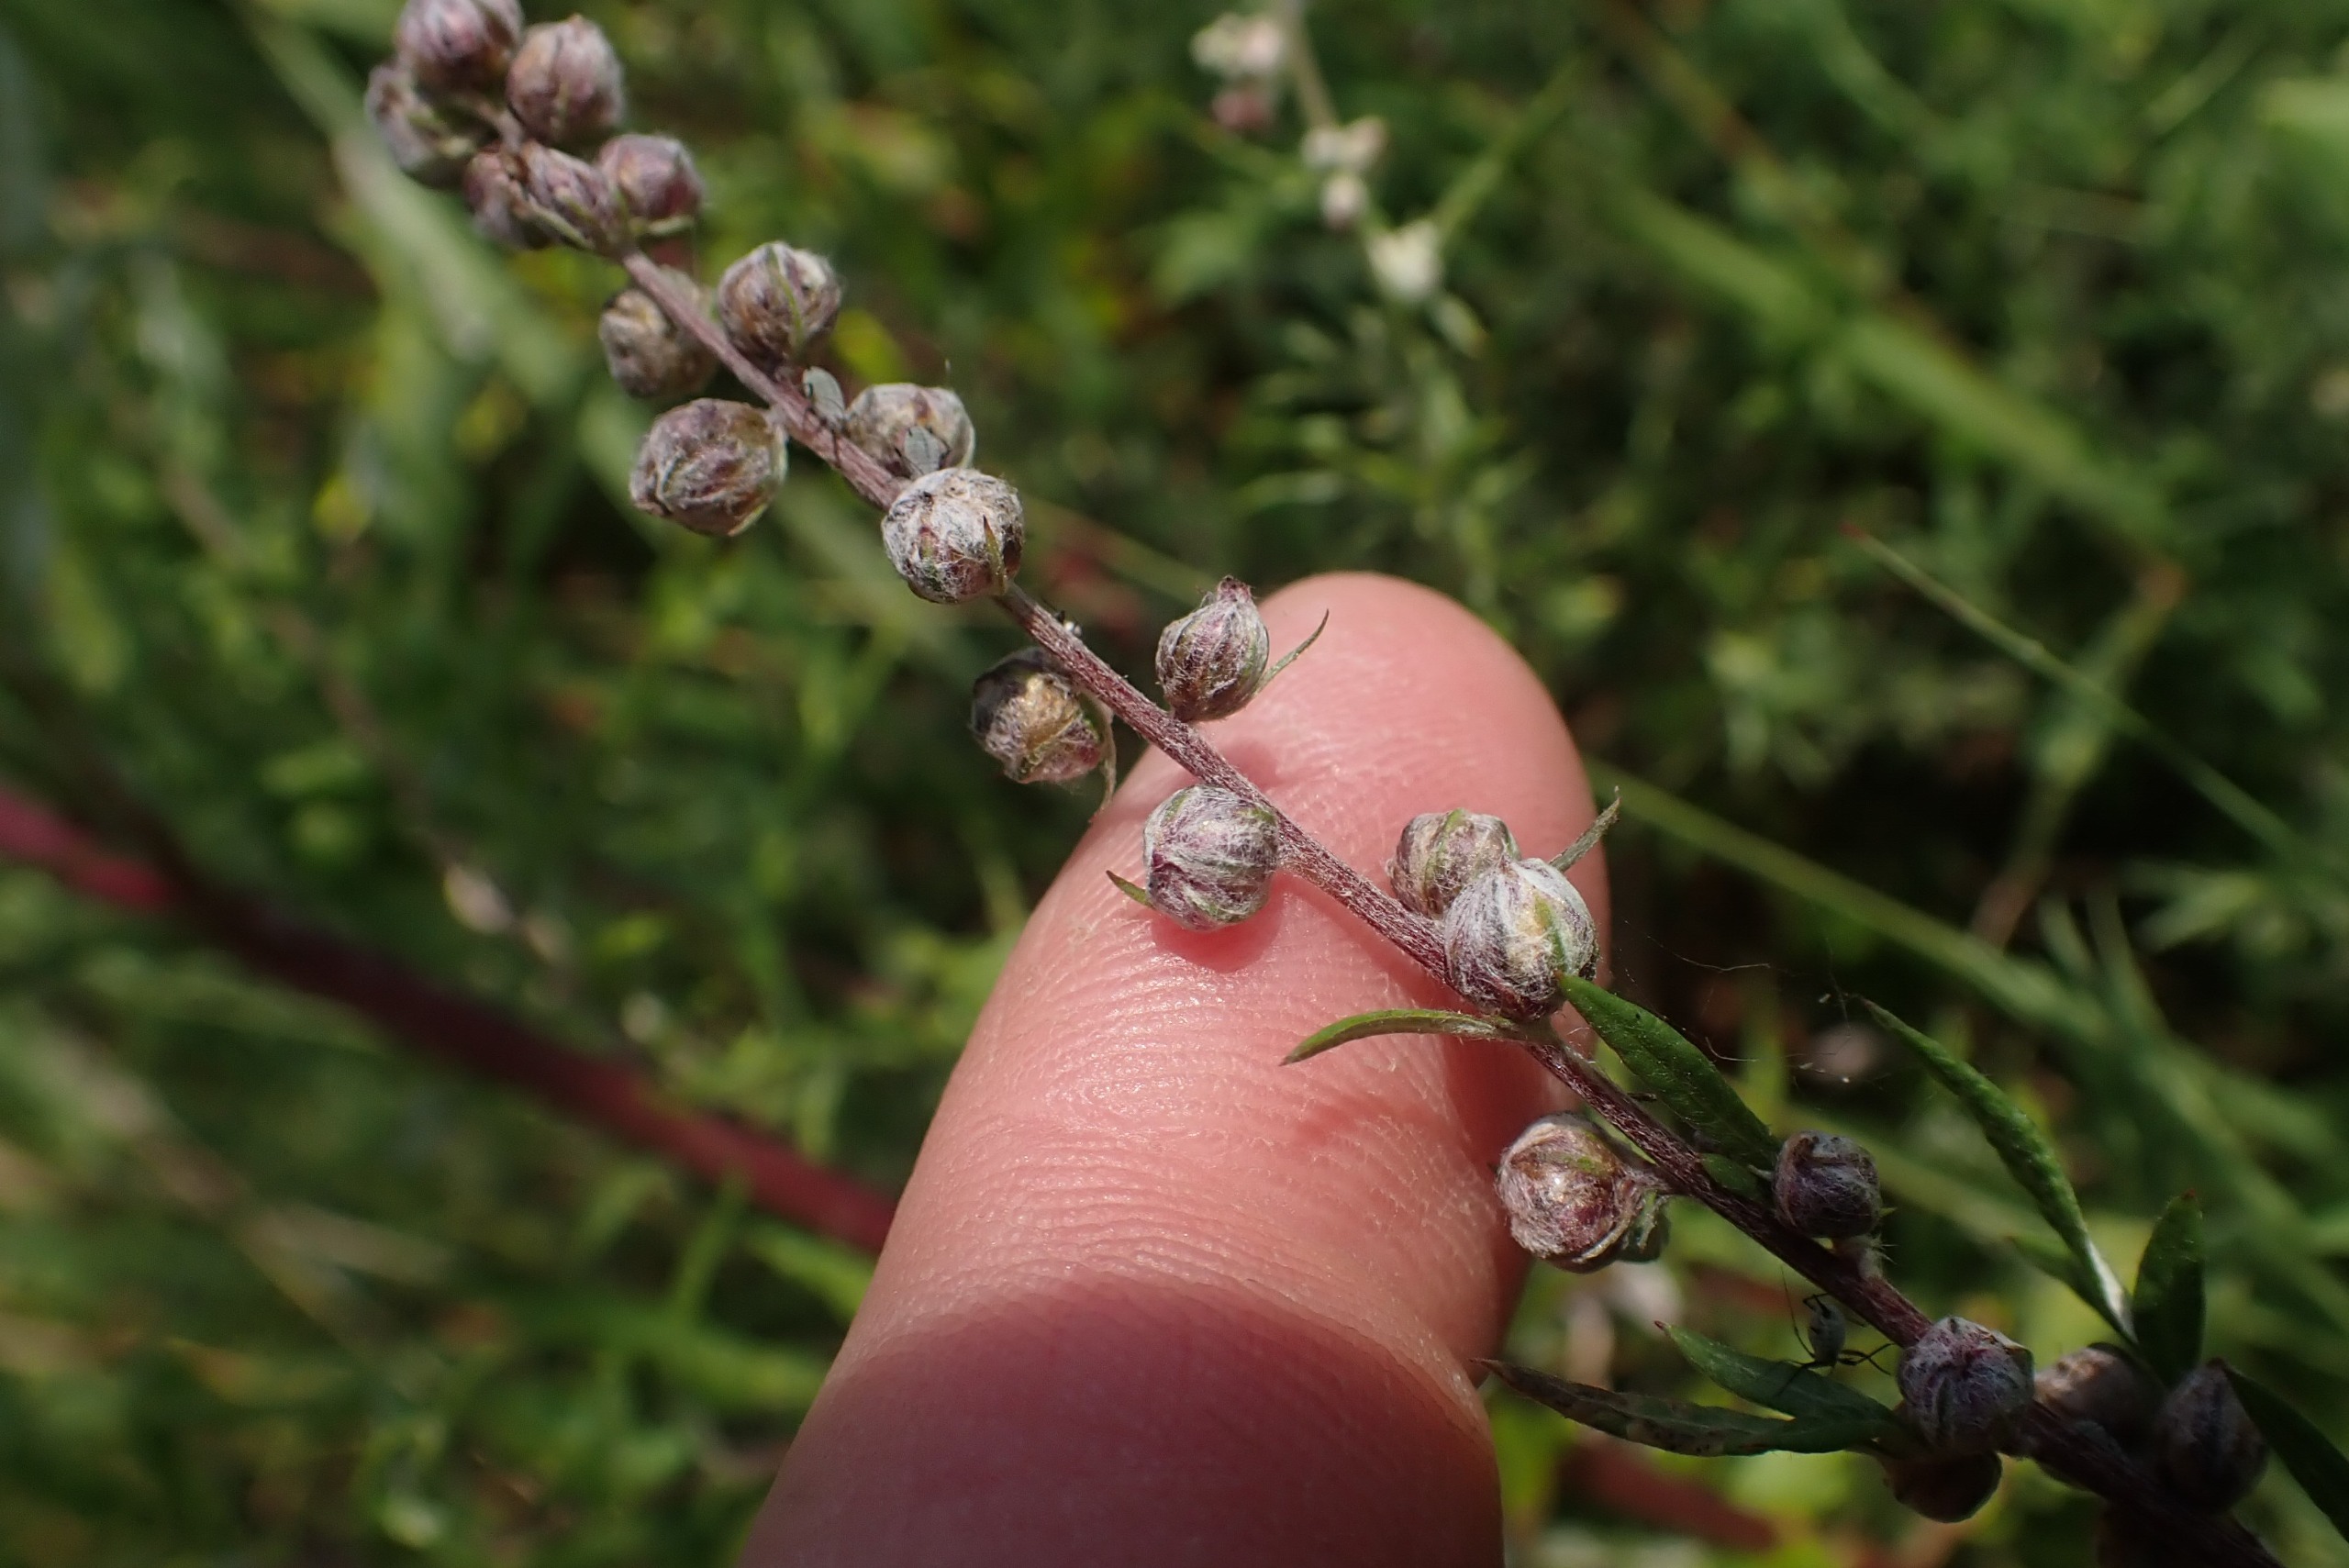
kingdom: Animalia
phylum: Arthropoda
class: Insecta
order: Diptera
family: Cecidomyiidae
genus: Ametrodiplosis
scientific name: Ametrodiplosis rudimentalis
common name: Bynkekurvgalmyg
